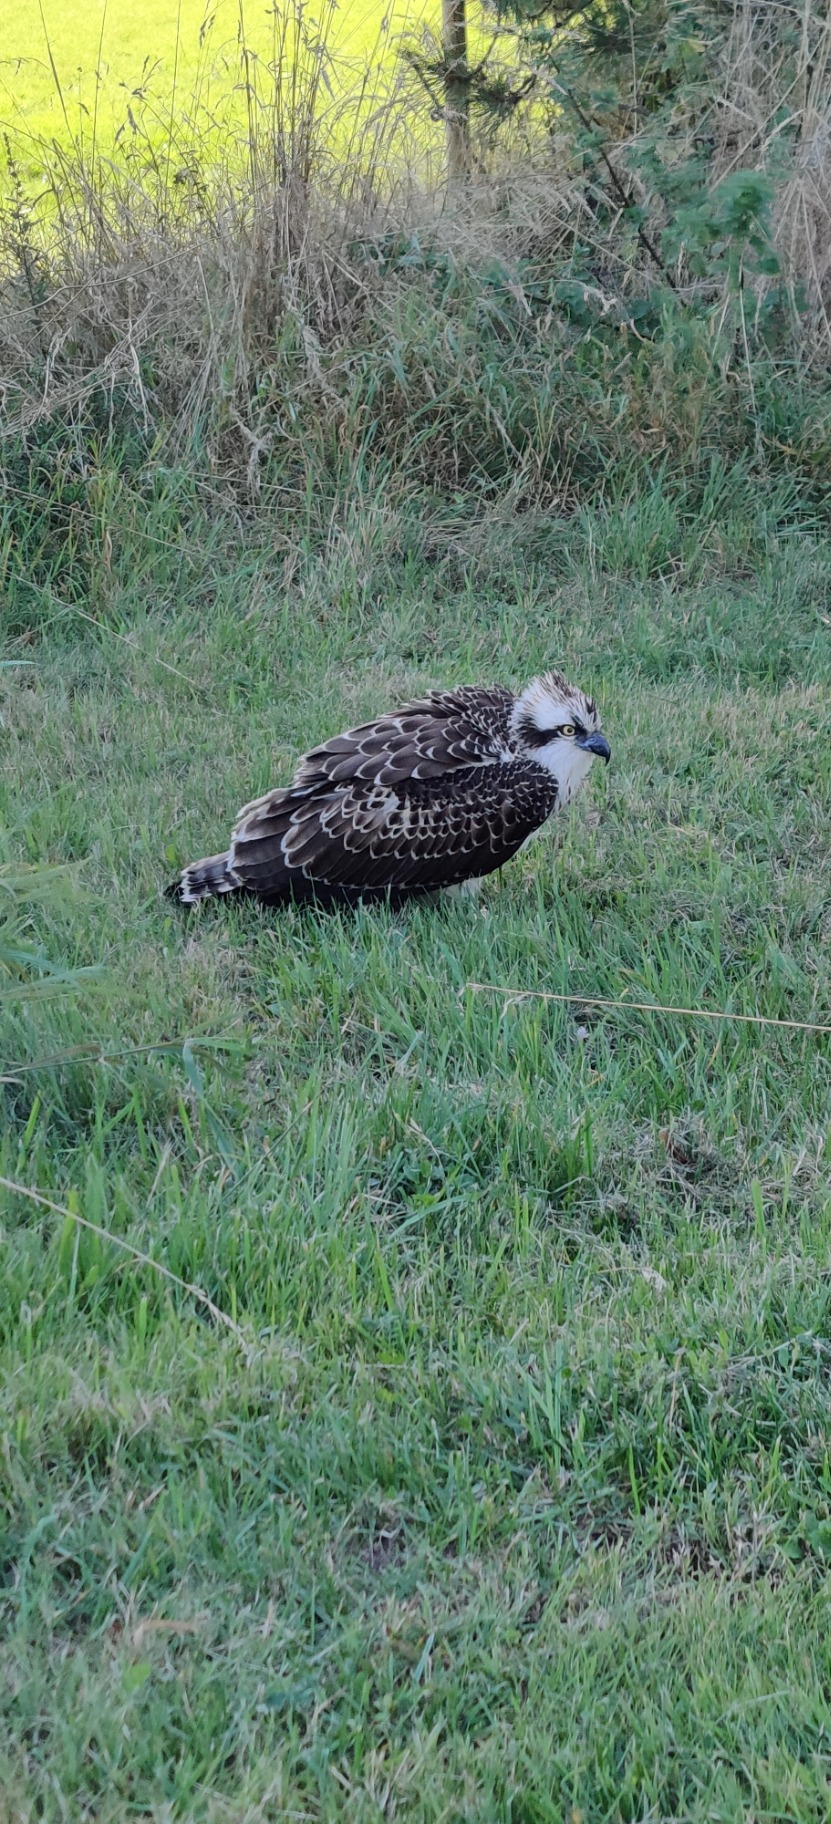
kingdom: Animalia
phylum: Chordata
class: Aves
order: Accipitriformes
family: Pandionidae
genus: Pandion
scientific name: Pandion haliaetus
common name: Fiskeørn
